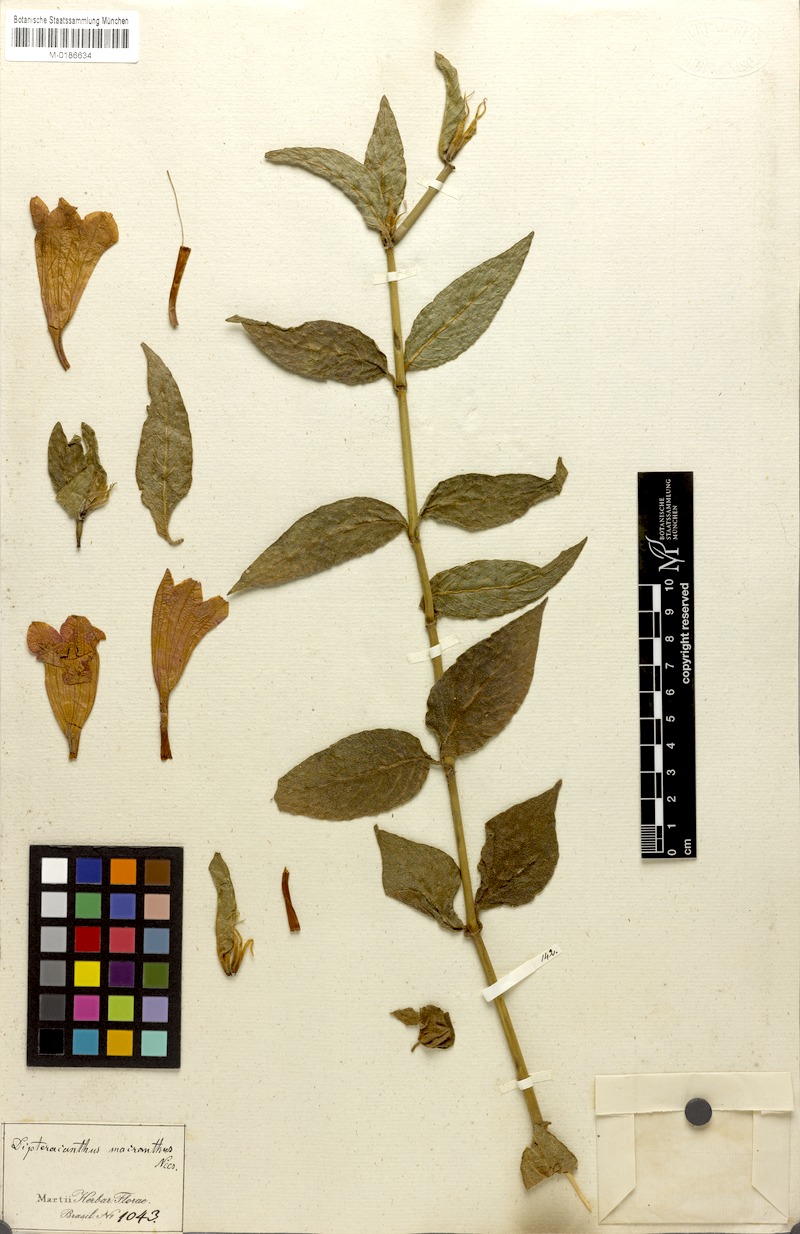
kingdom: Plantae
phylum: Tracheophyta
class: Magnoliopsida
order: Lamiales
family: Acanthaceae
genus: Ruellia
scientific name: Ruellia macrantha
